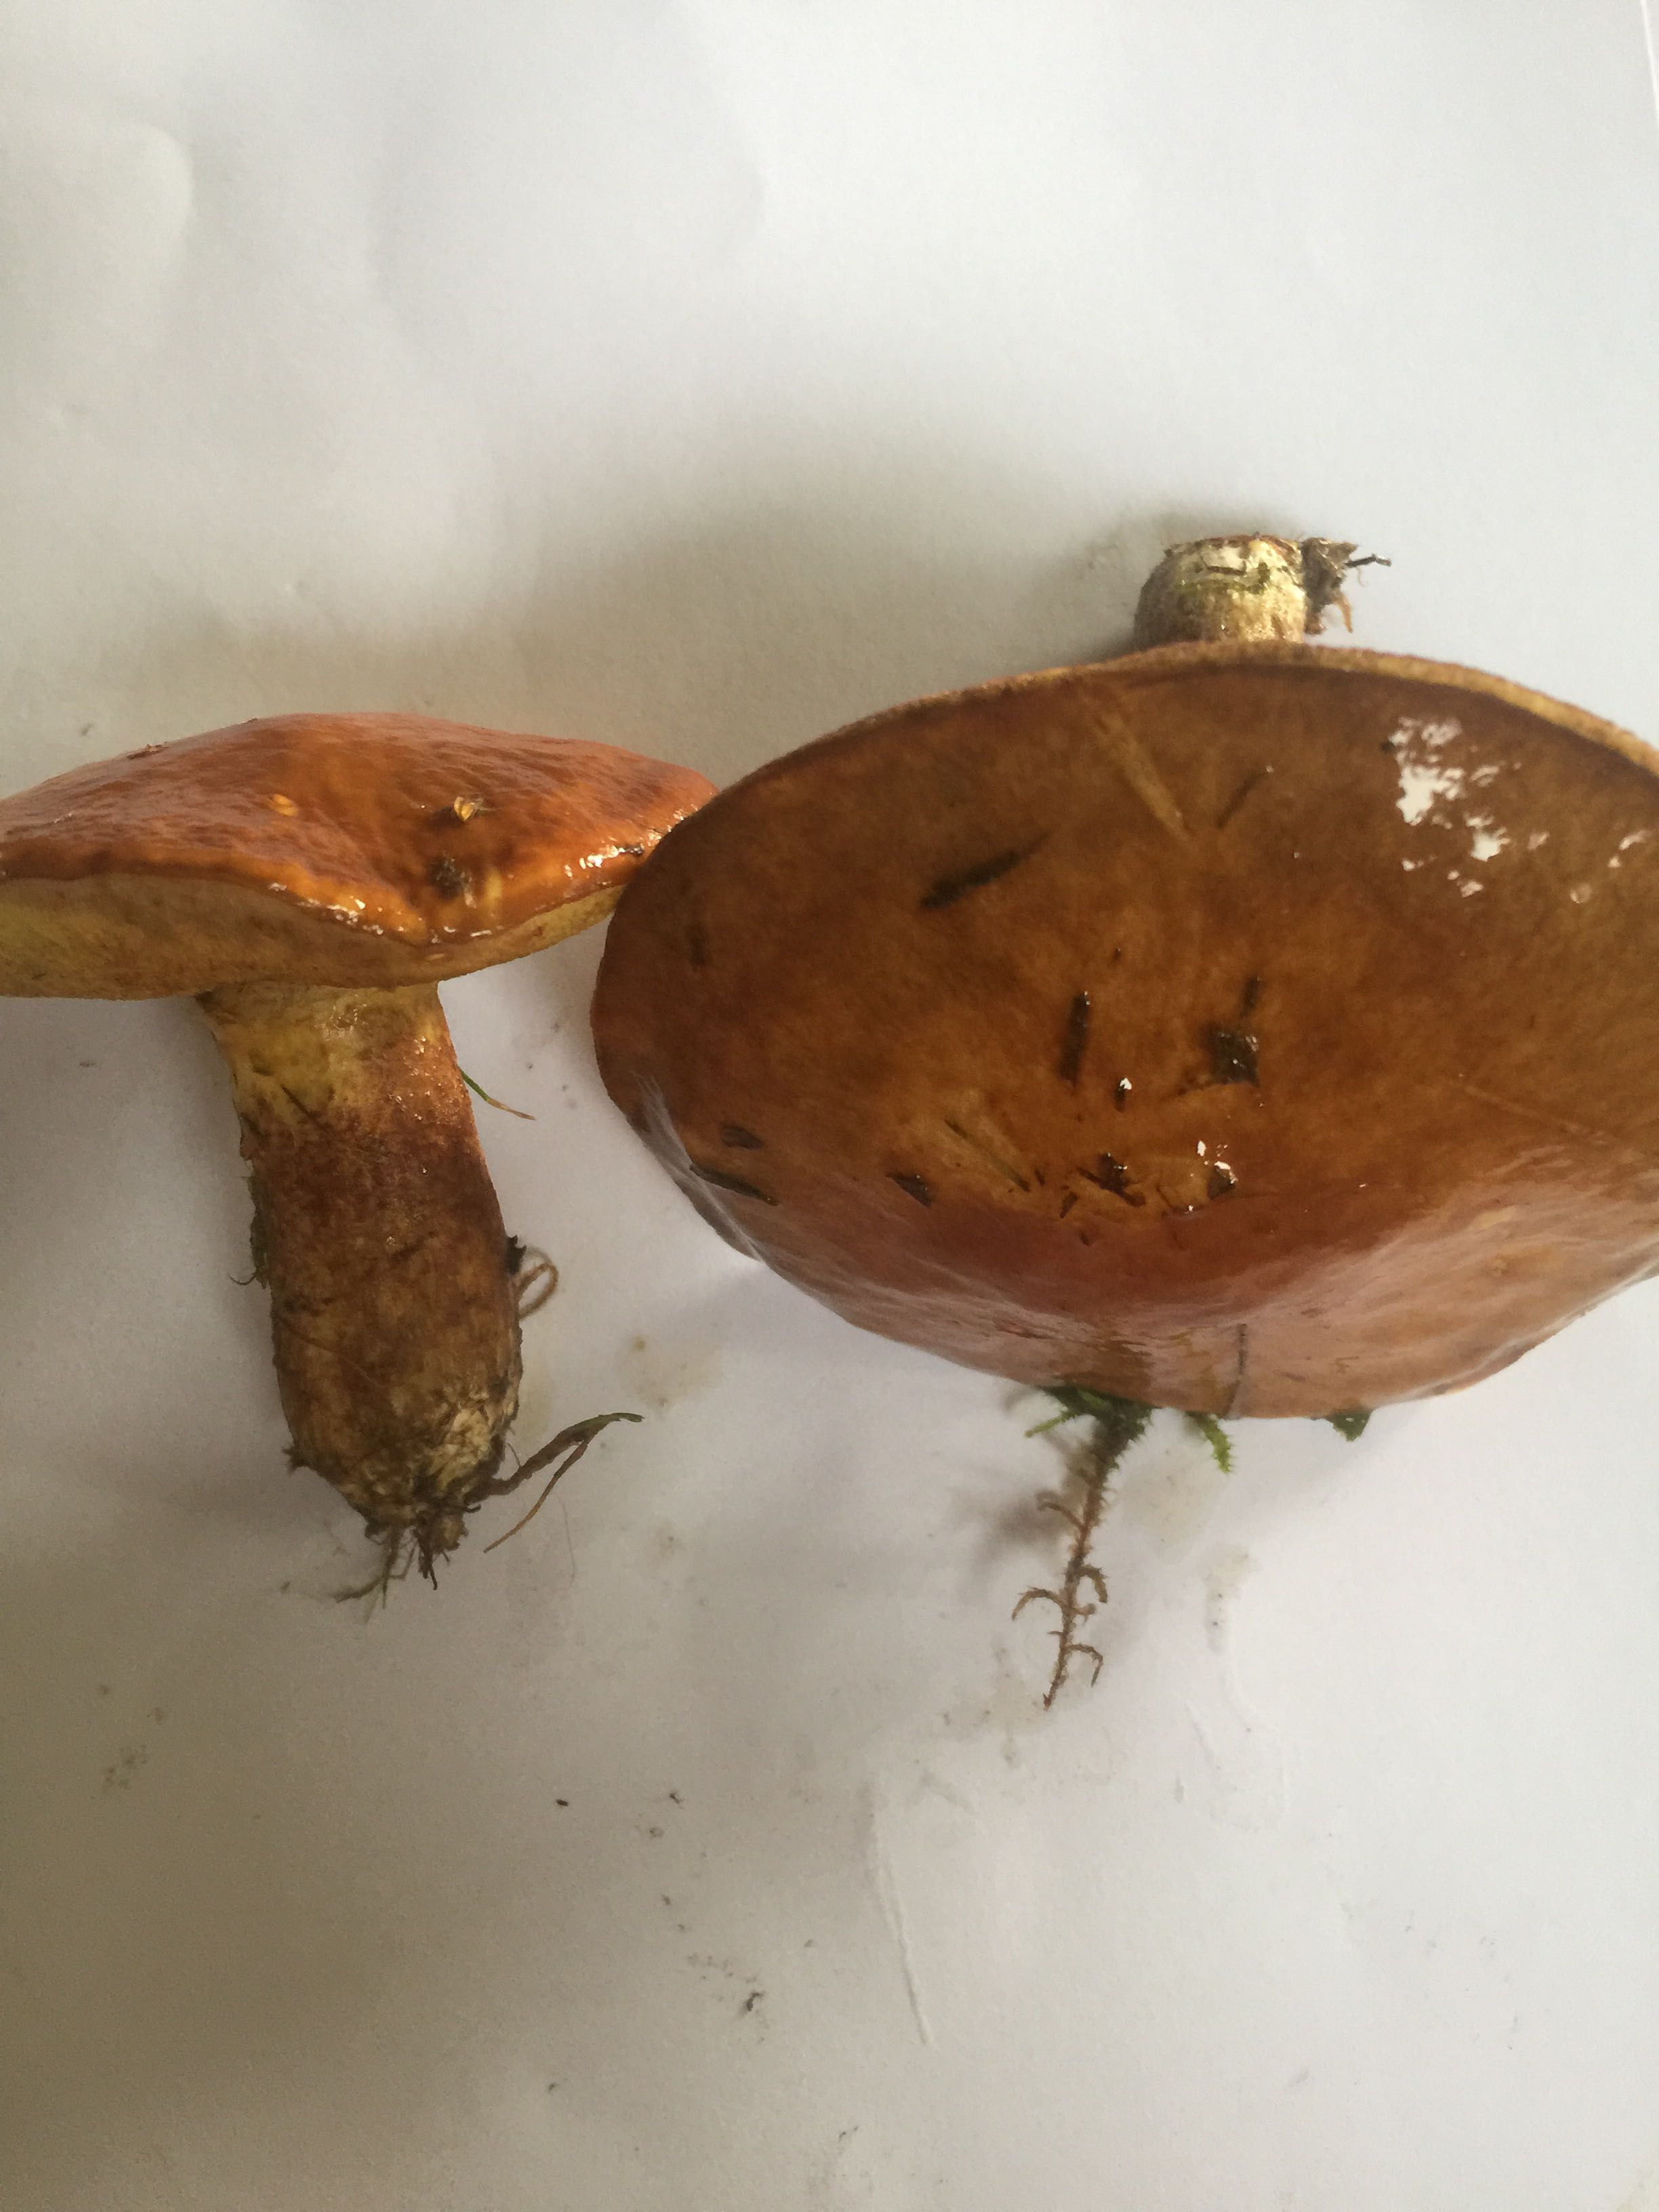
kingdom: Fungi
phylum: Basidiomycota
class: Agaricomycetes
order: Boletales
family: Suillaceae
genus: Suillus
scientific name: Suillus grevillei
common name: lærke-slimrørhat
